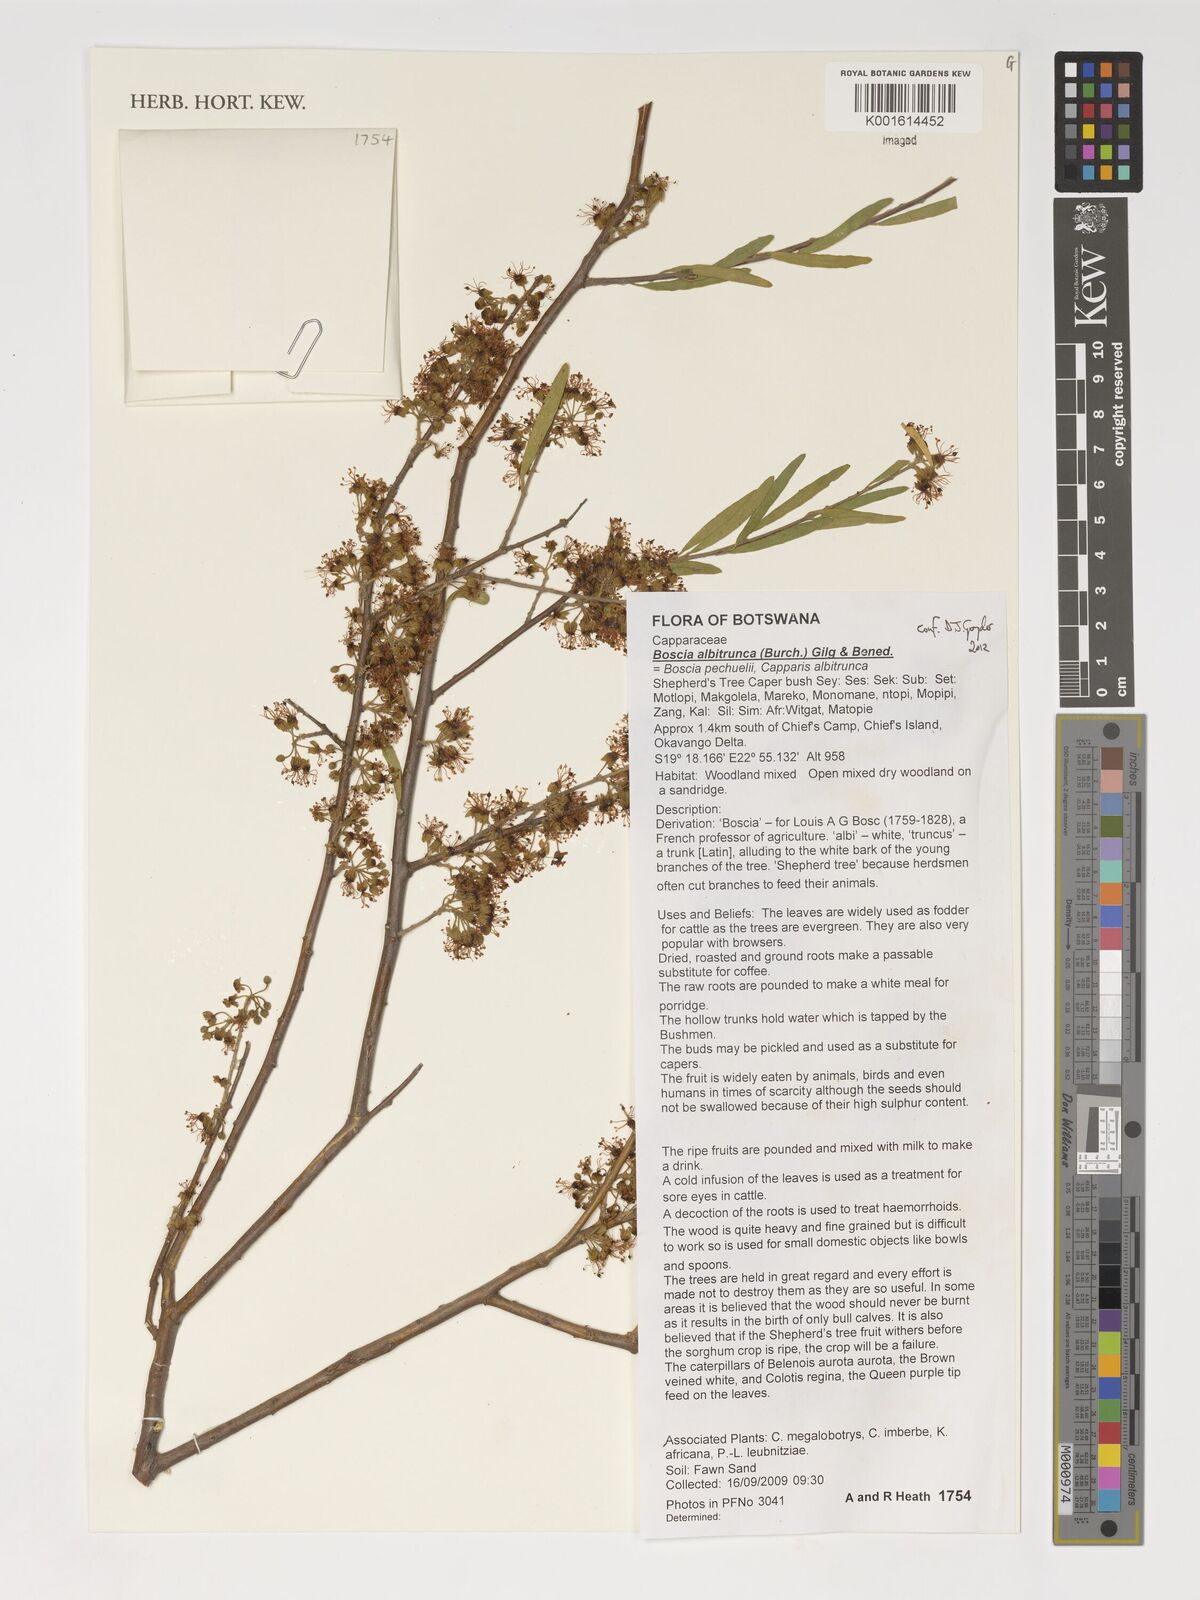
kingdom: Plantae
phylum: Tracheophyta
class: Magnoliopsida
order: Brassicales
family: Capparaceae
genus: Boscia
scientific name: Boscia albitrunca
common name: Caper bush
